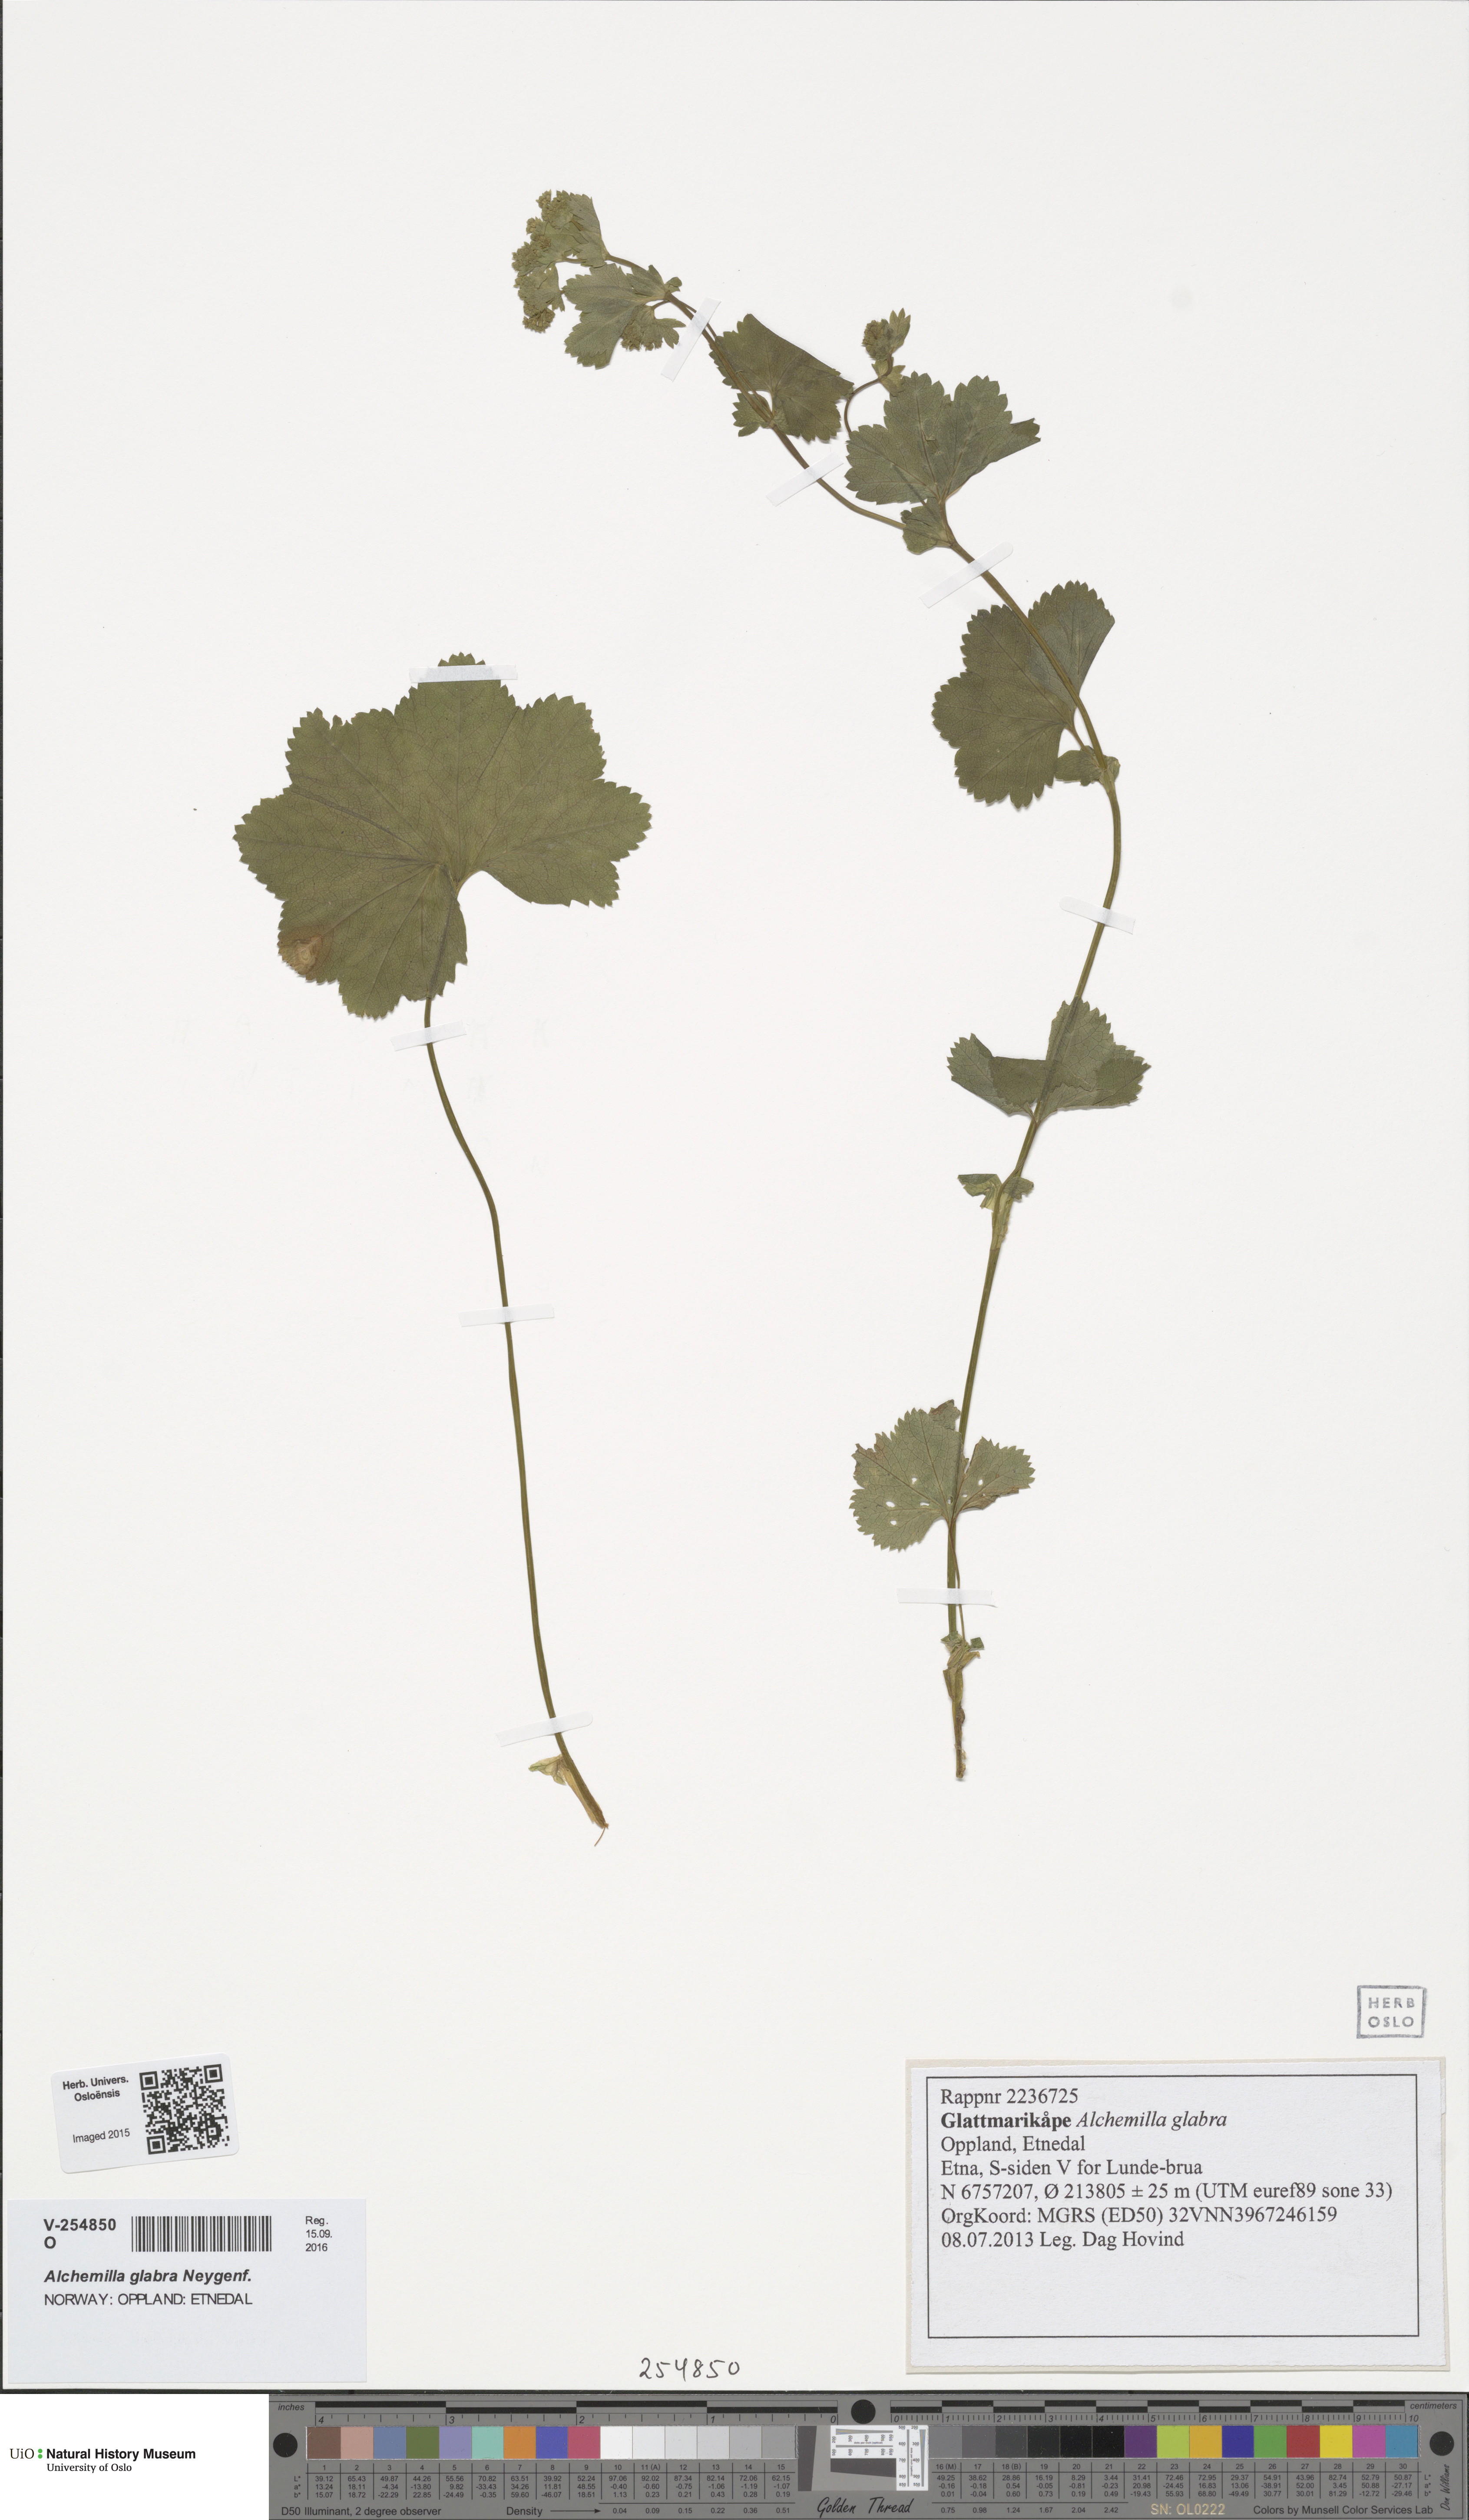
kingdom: Plantae
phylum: Tracheophyta
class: Magnoliopsida
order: Rosales
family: Rosaceae
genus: Alchemilla
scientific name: Alchemilla glabra
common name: Smooth lady's-mantle
